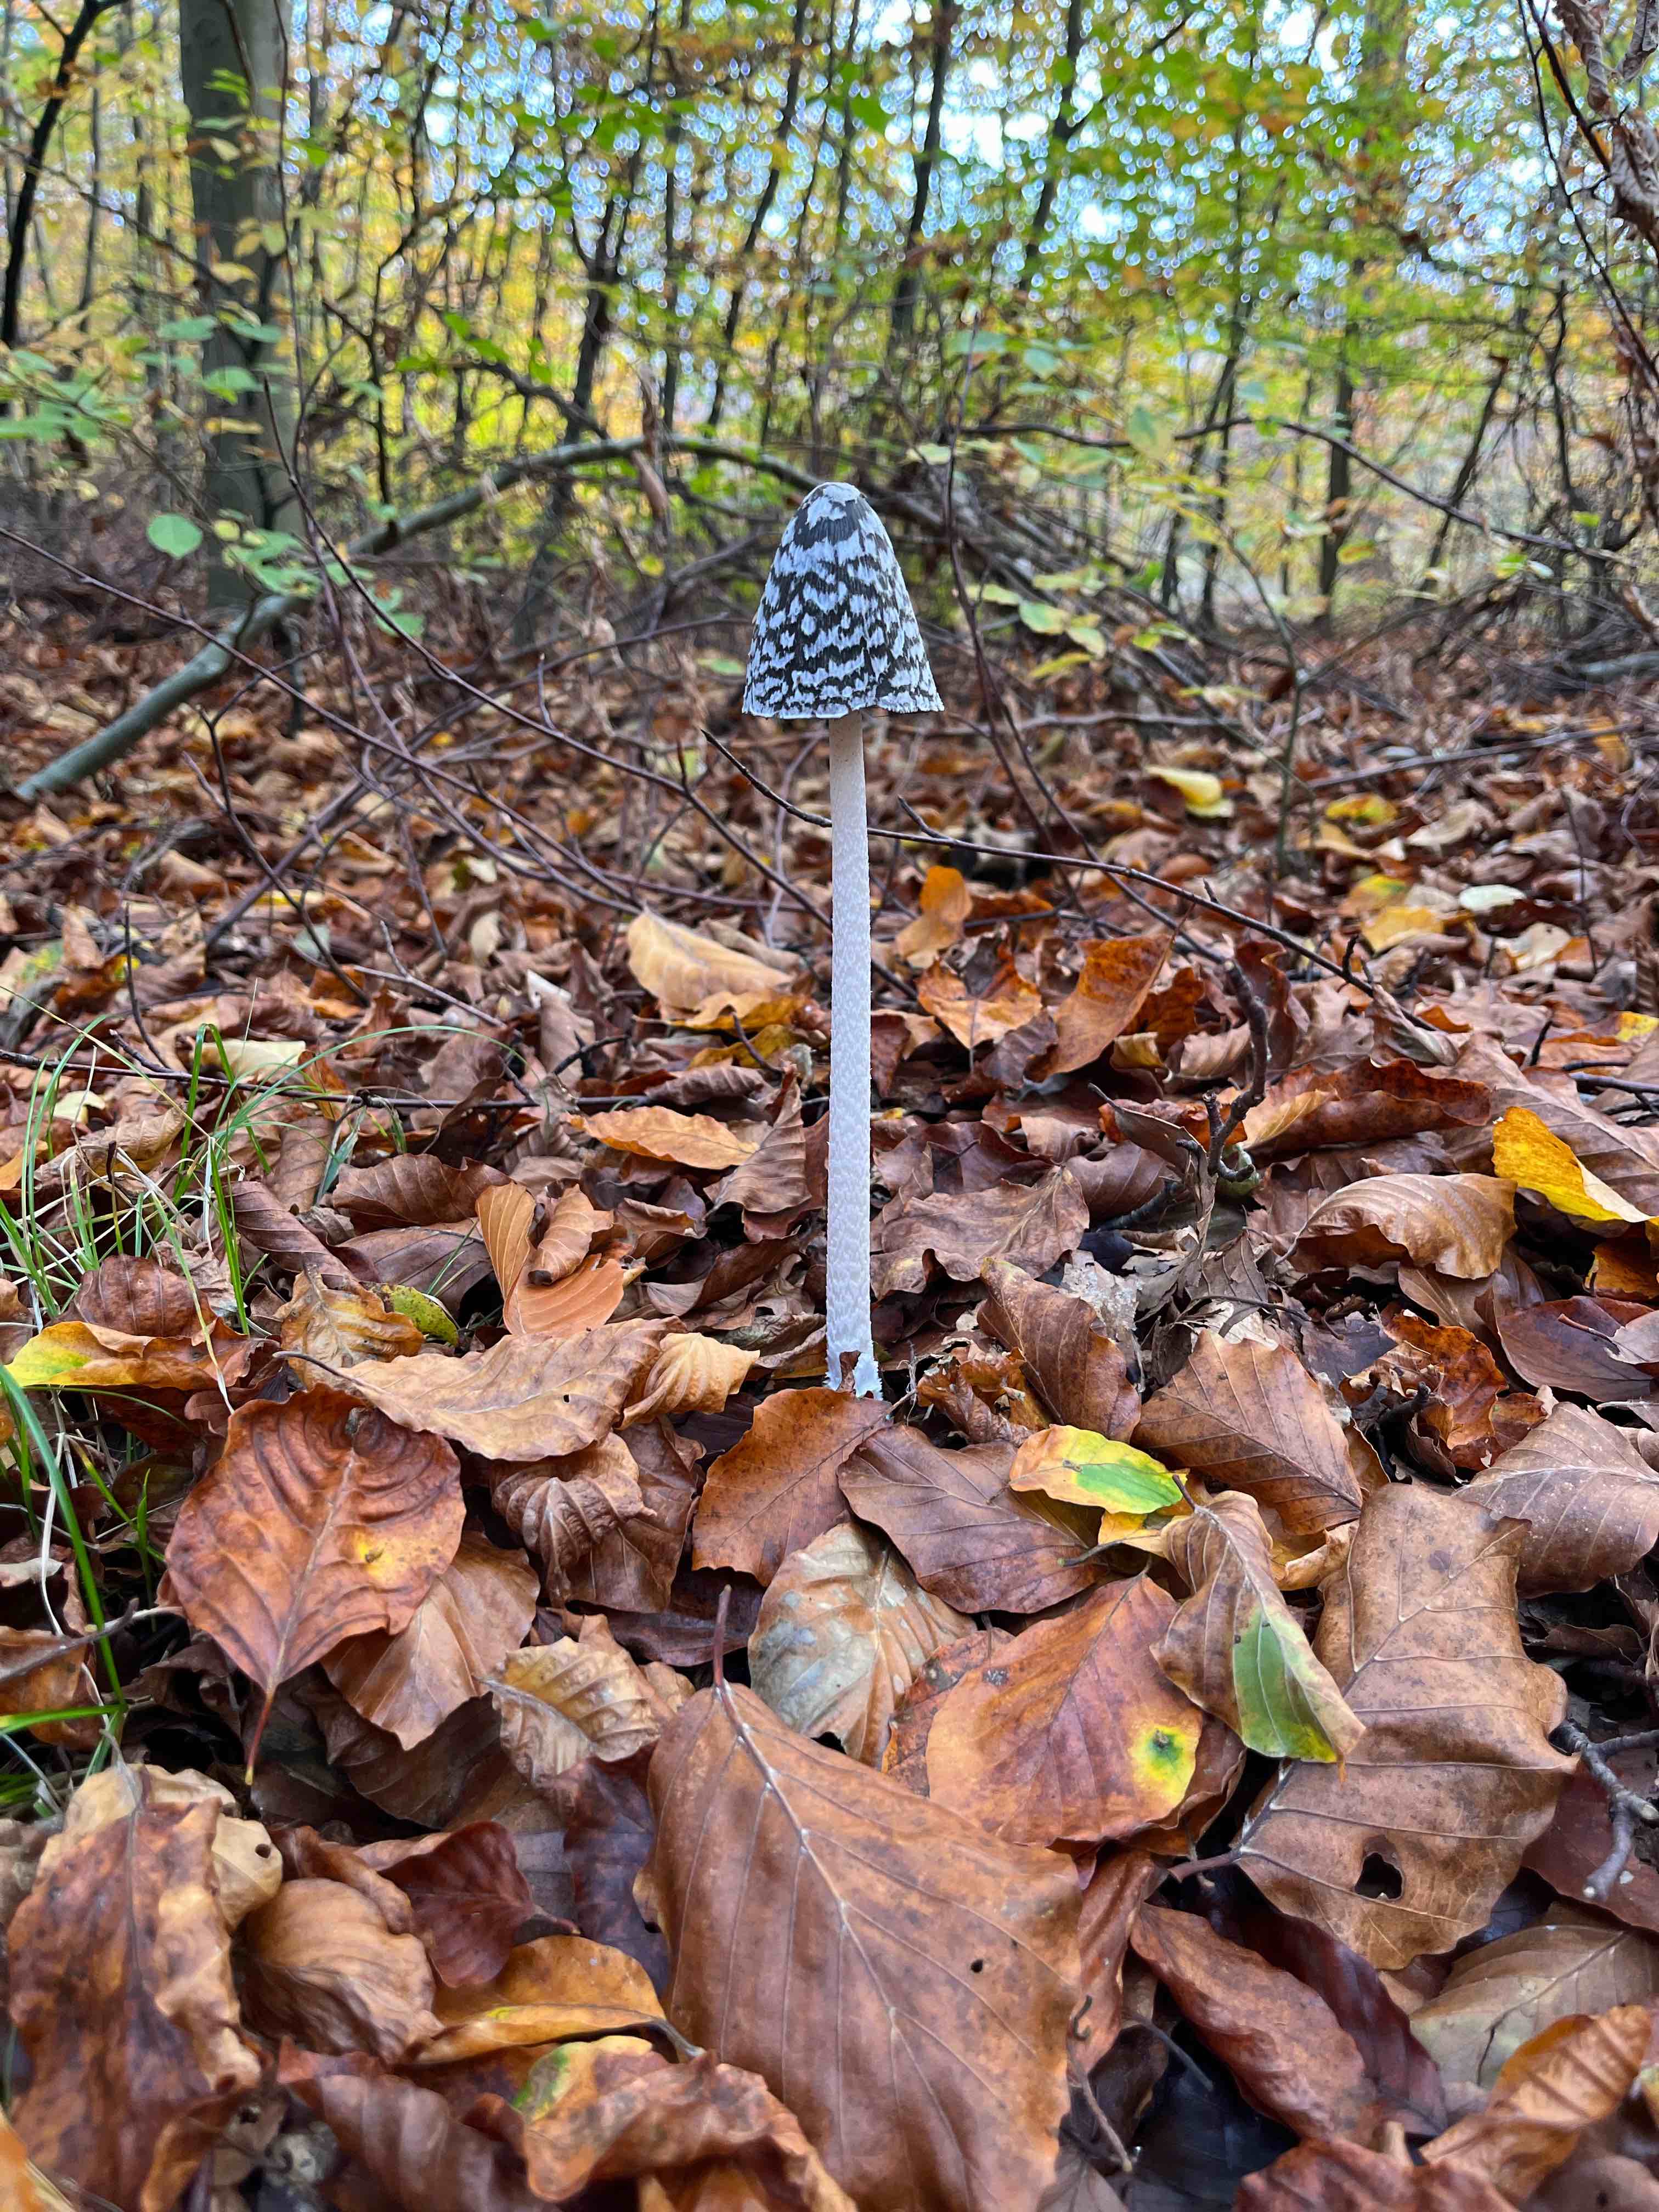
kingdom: Fungi
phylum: Basidiomycota
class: Agaricomycetes
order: Agaricales
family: Psathyrellaceae
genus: Coprinopsis
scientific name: Coprinopsis picacea
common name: skade-blækhat
